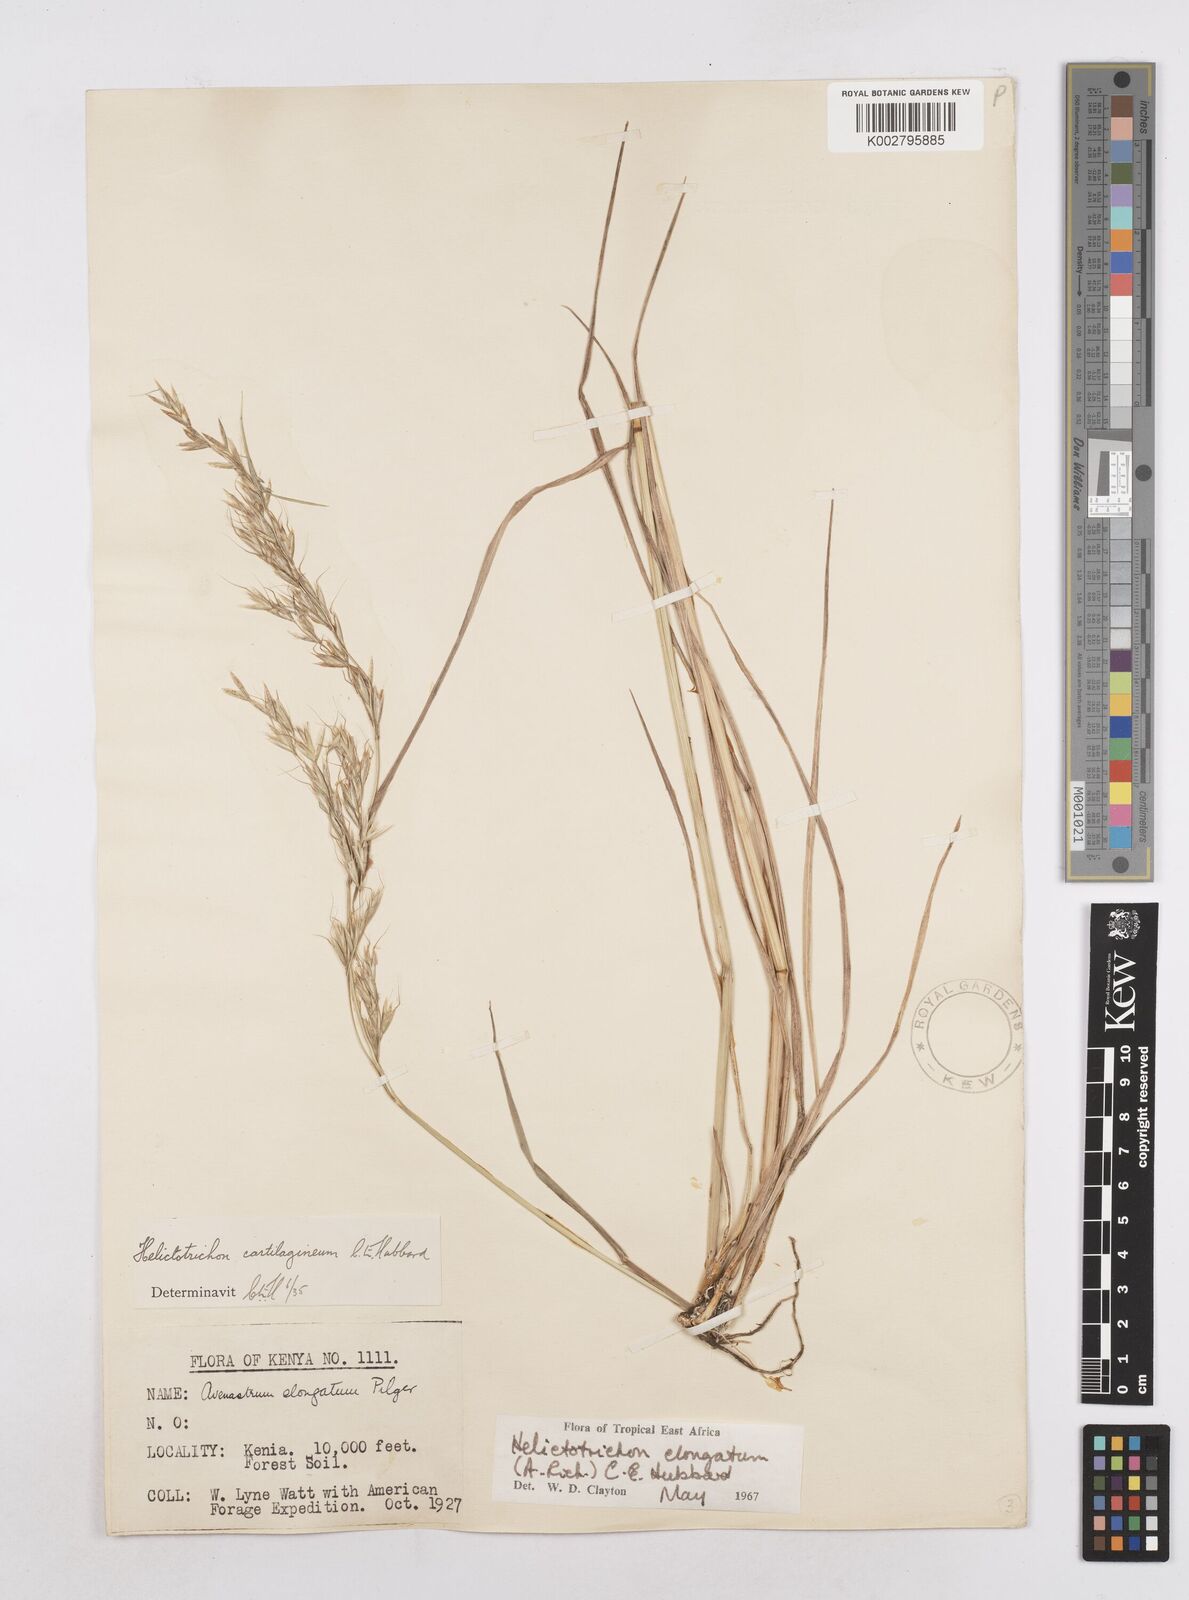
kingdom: Plantae
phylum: Tracheophyta
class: Liliopsida
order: Poales
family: Poaceae
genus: Trisetopsis
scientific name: Trisetopsis elongata
